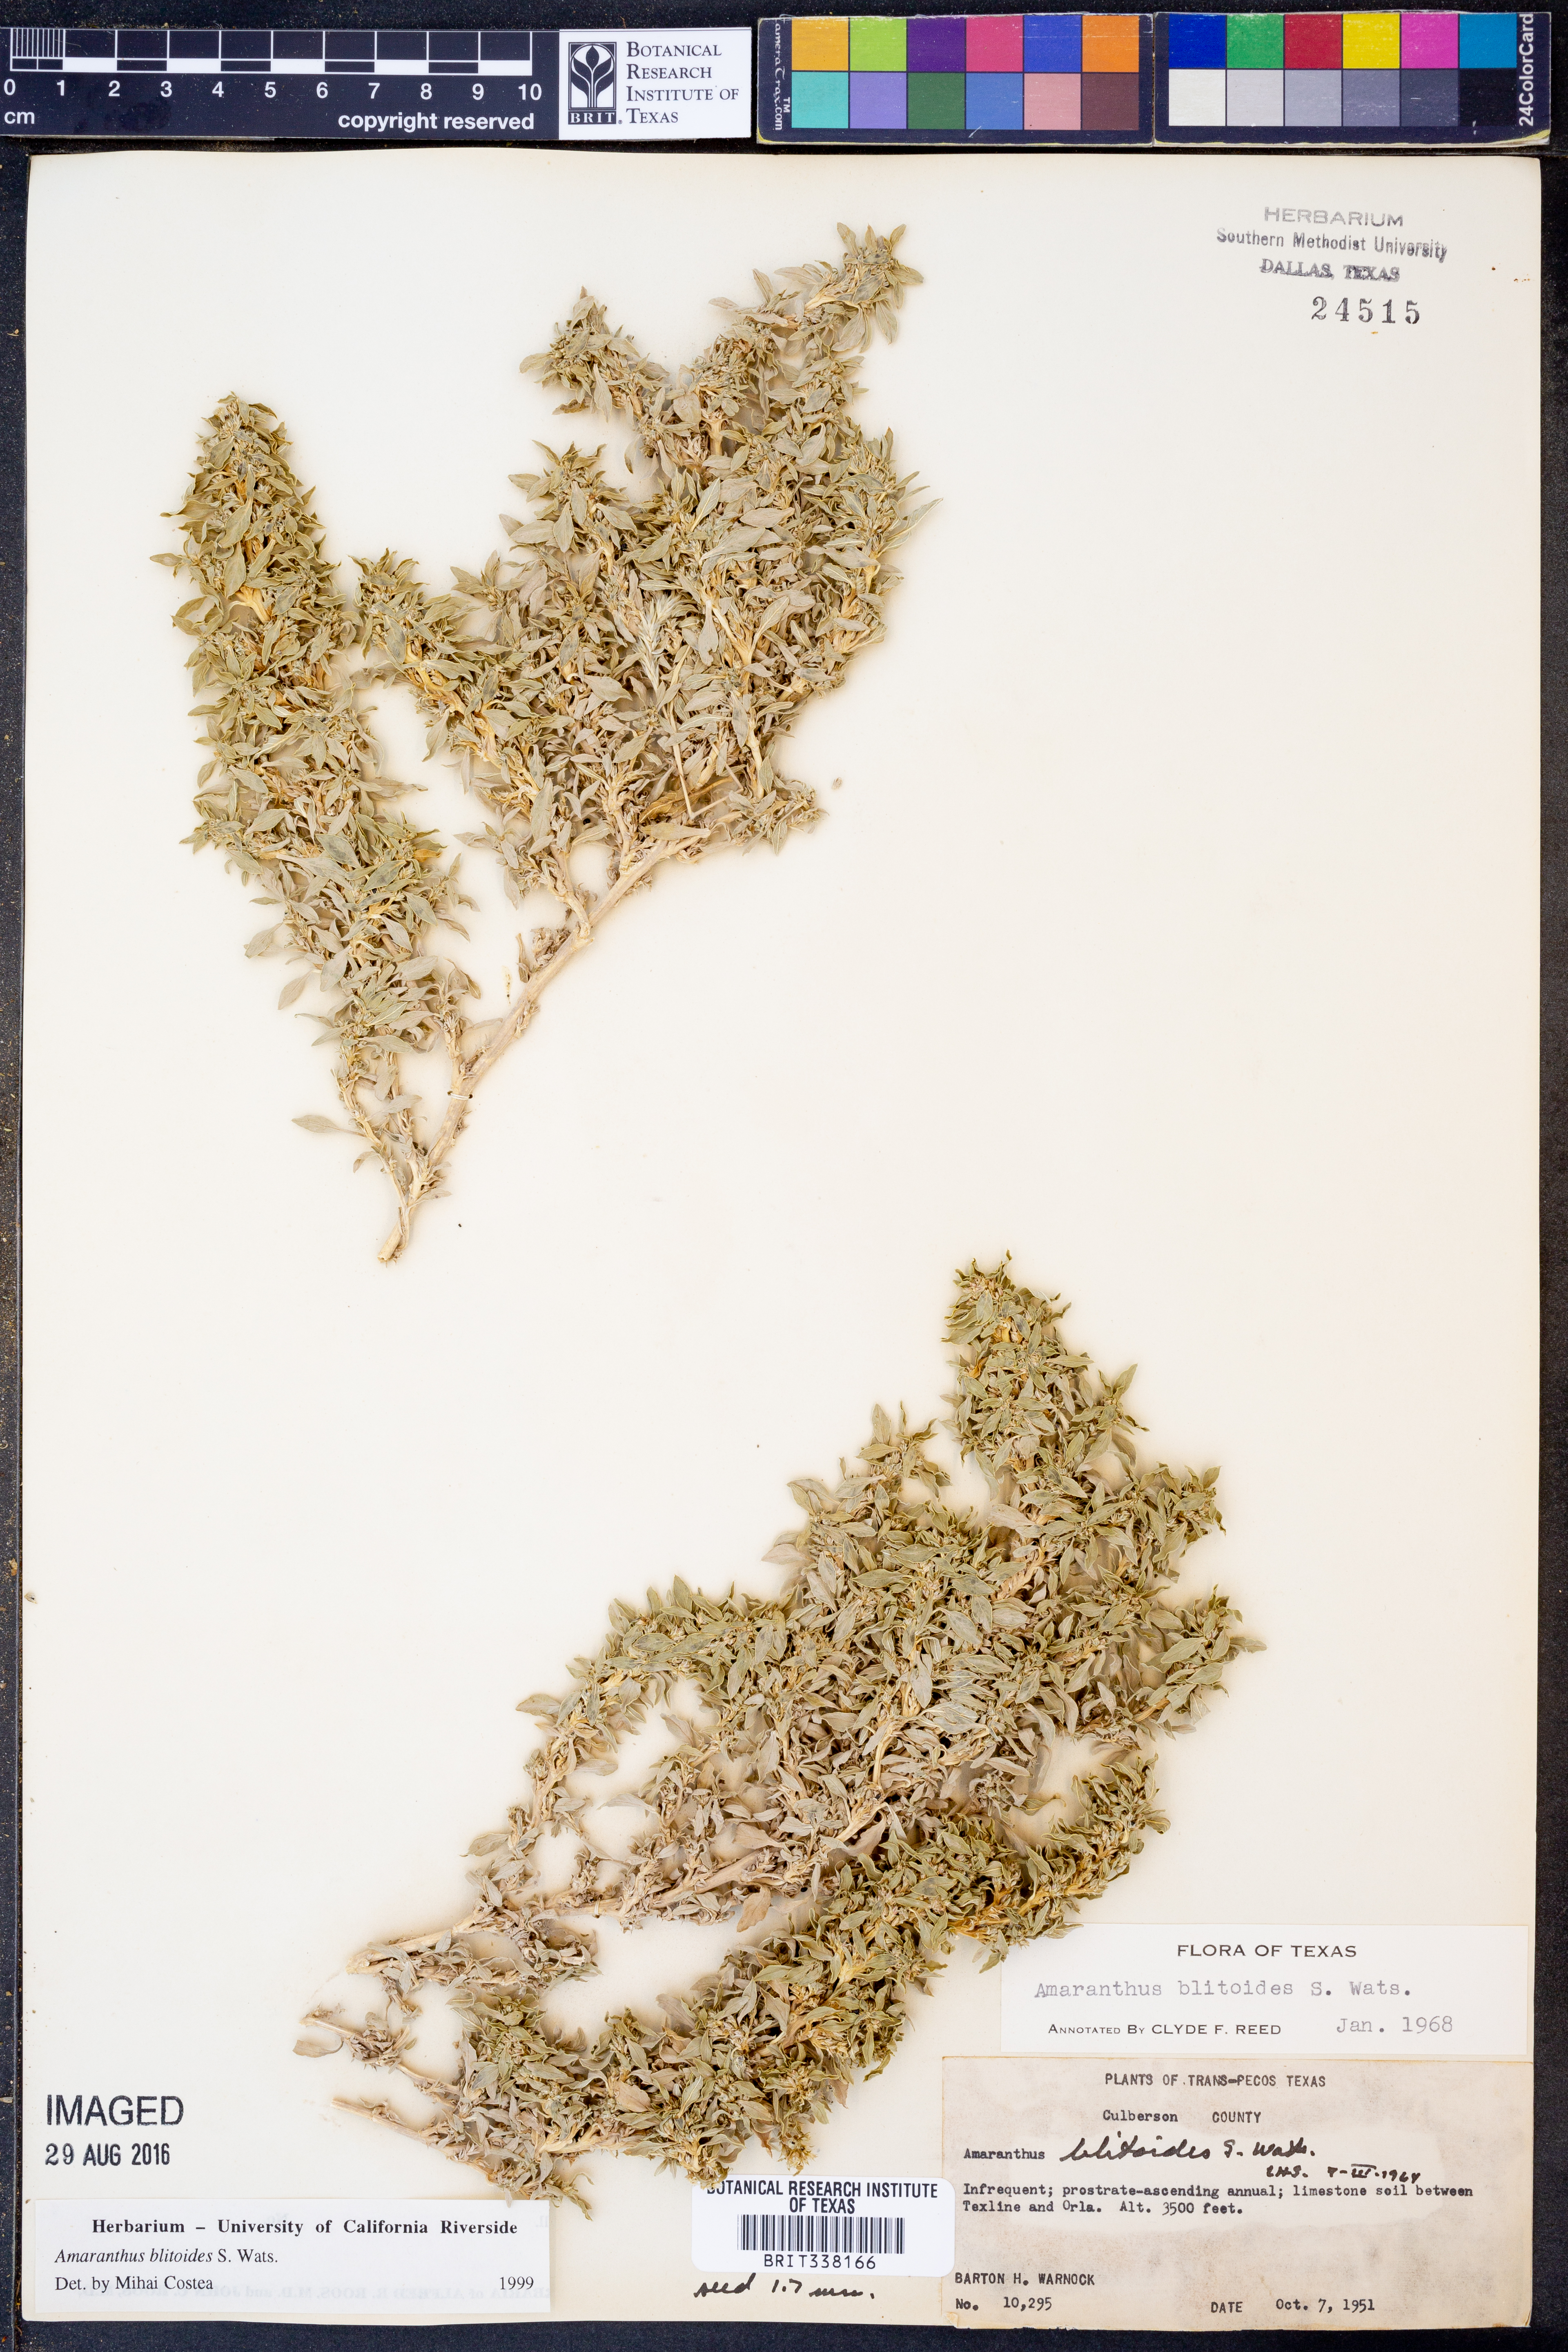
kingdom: Plantae
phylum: Tracheophyta
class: Magnoliopsida
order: Caryophyllales
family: Amaranthaceae
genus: Amaranthus
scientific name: Amaranthus blitoides
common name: Prostrate pigweed
